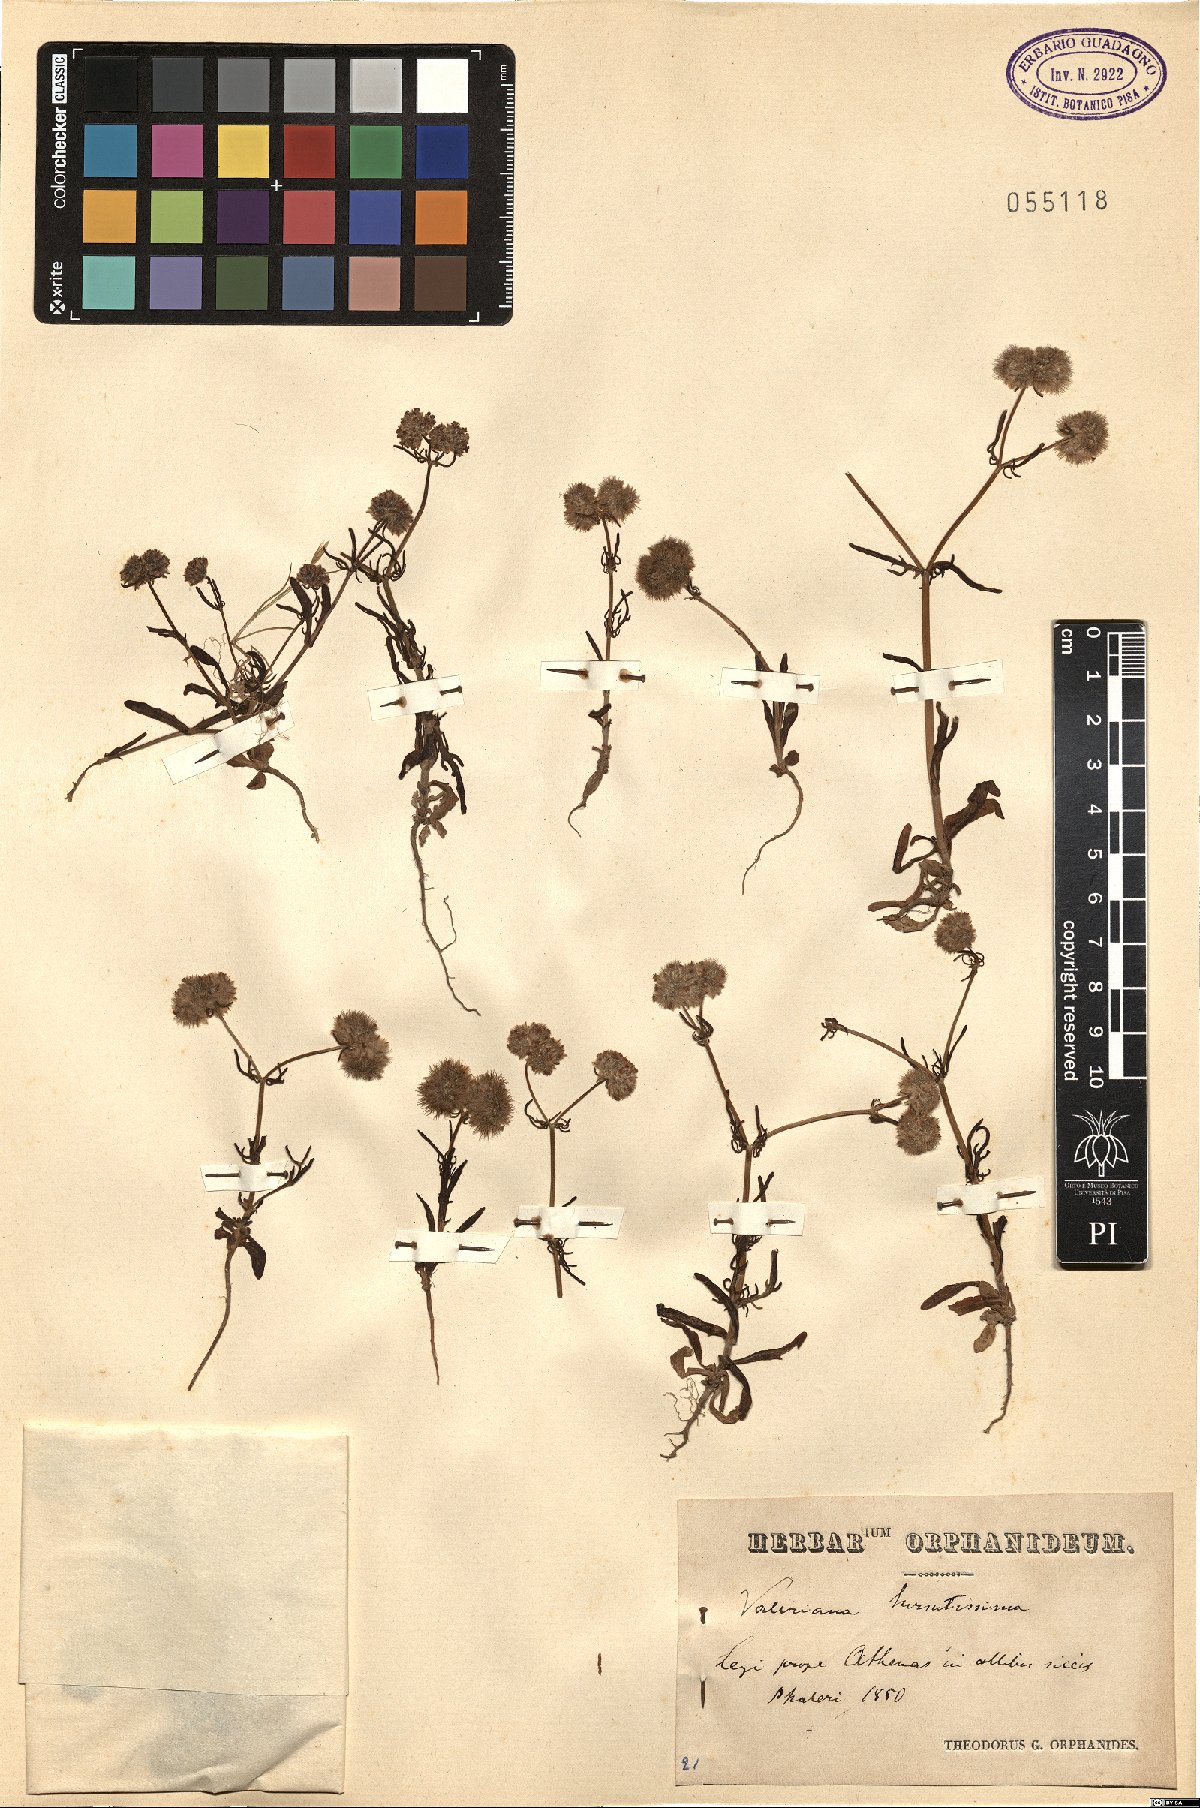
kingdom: Plantae
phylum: Tracheophyta
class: Magnoliopsida
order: Dipsacales
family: Caprifoliaceae
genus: Valerianella
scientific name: Valerianella hirsutissima
